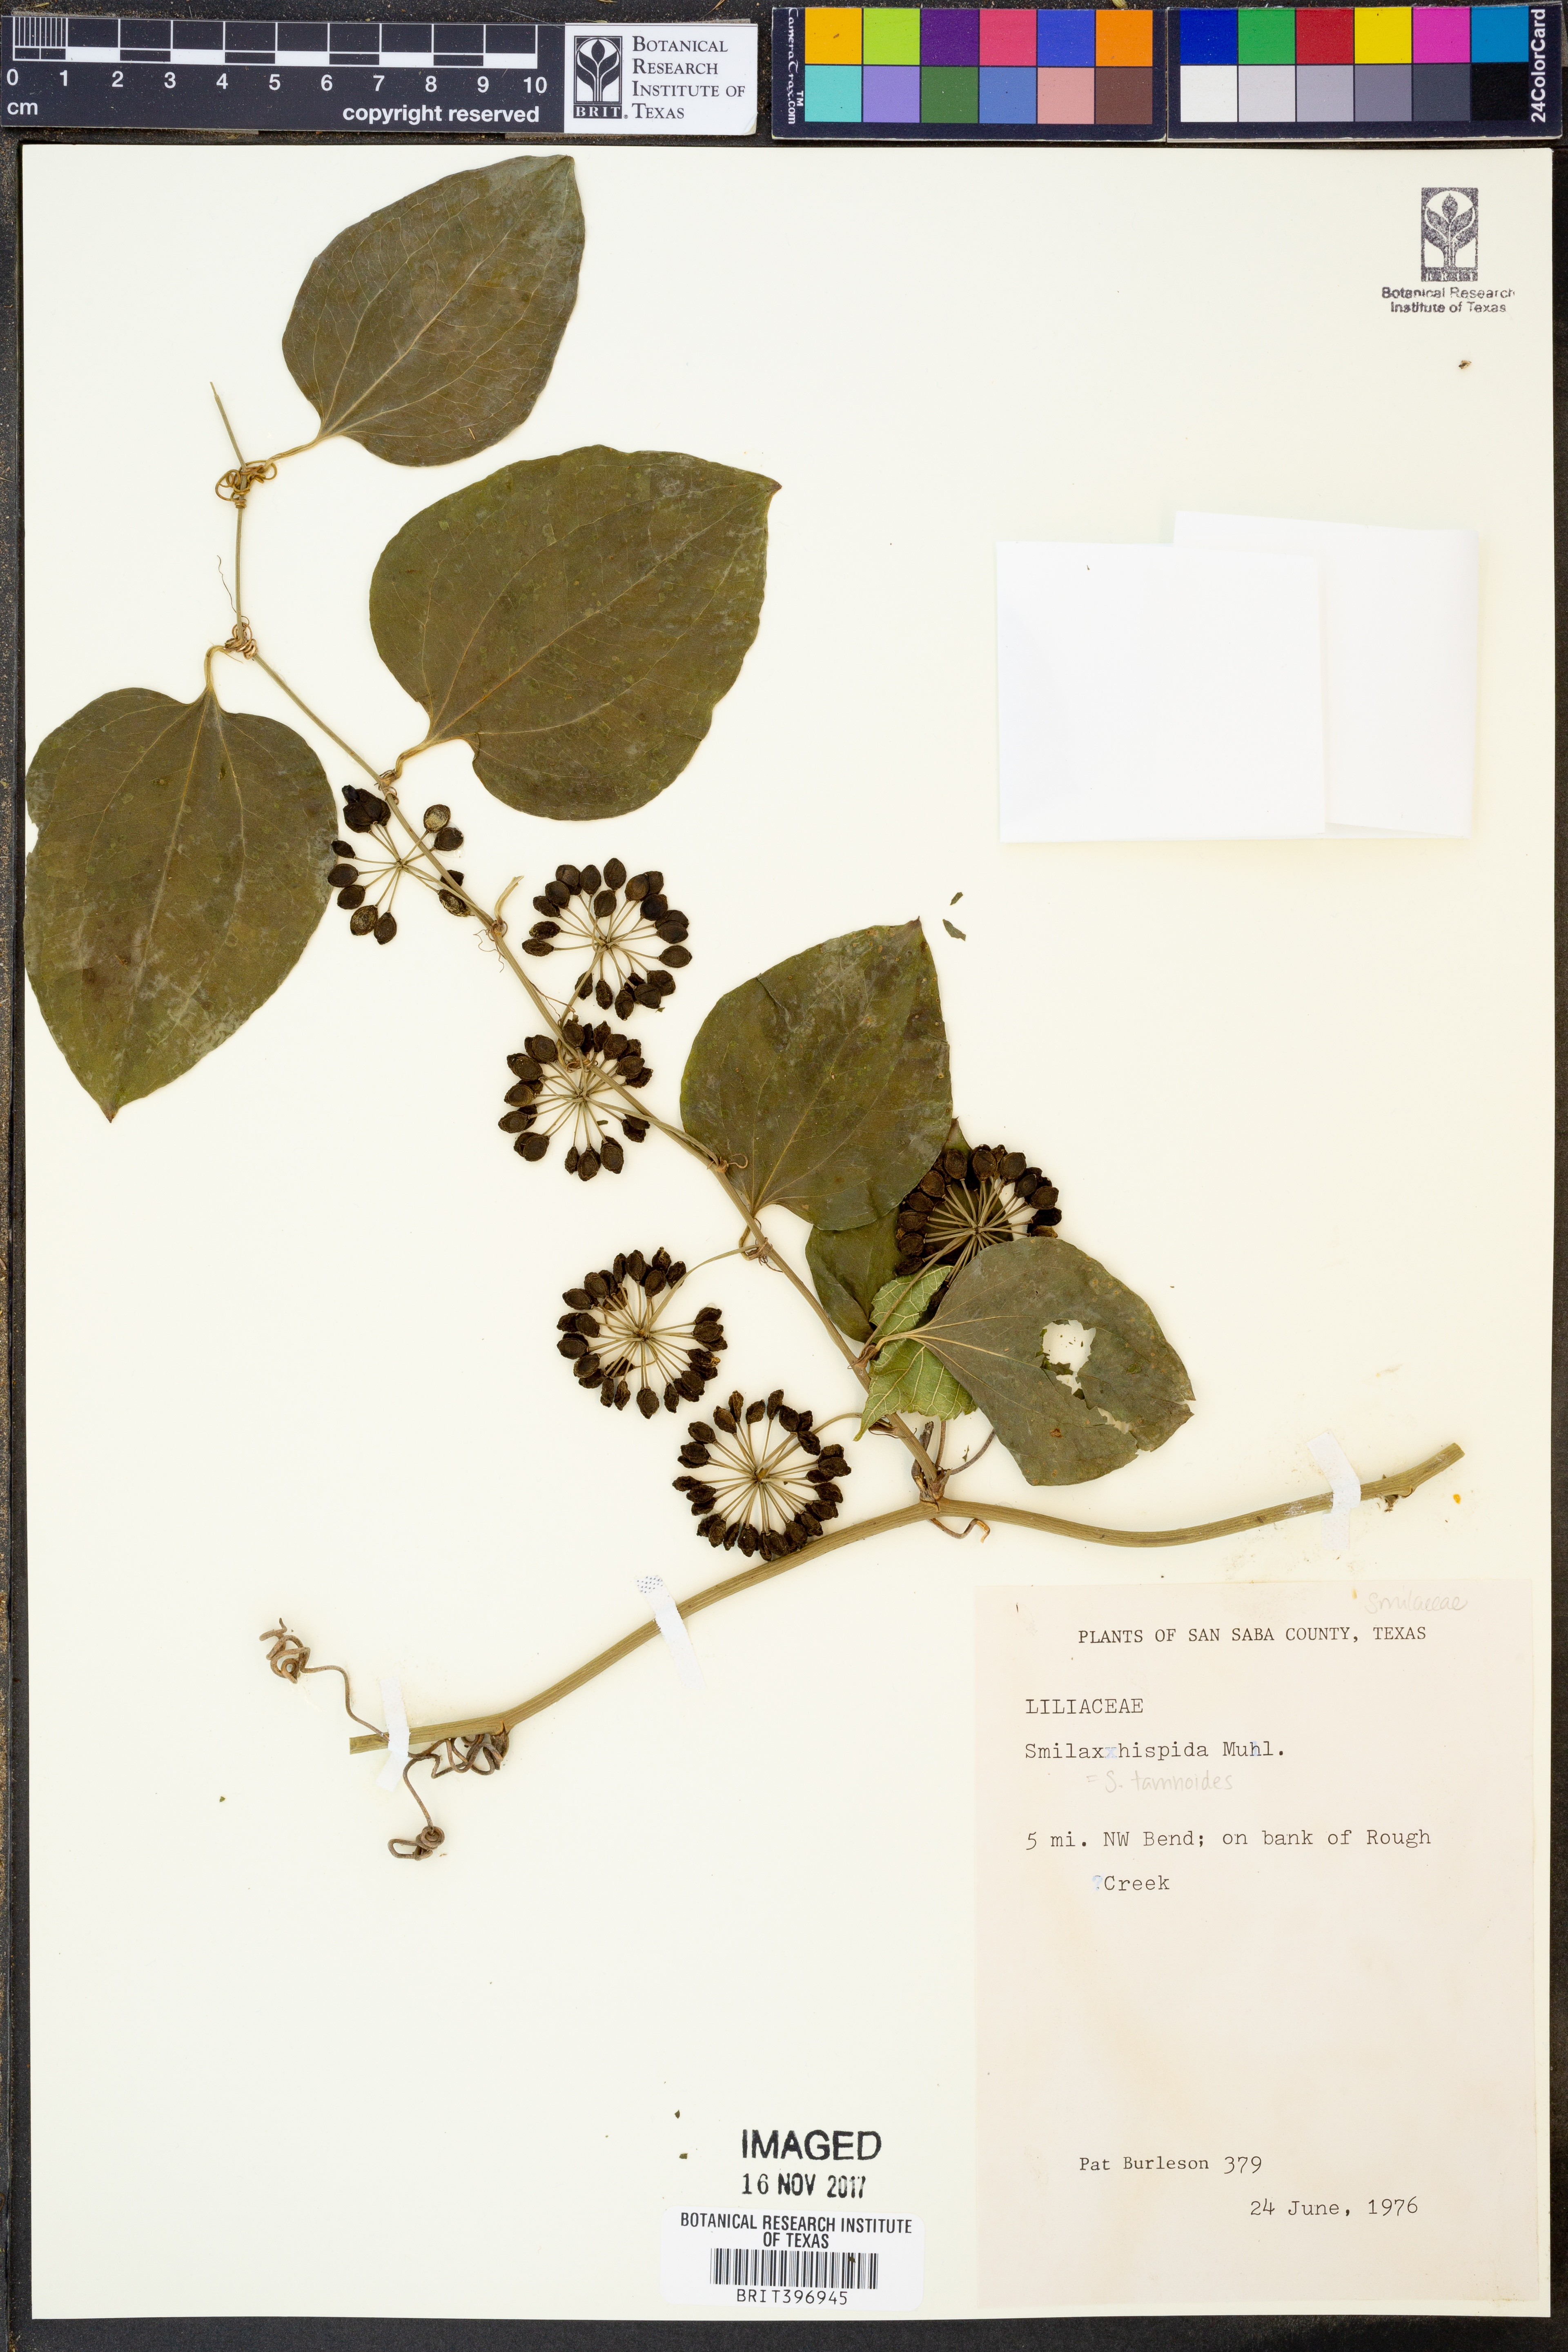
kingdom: Plantae
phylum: Tracheophyta
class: Liliopsida
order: Liliales
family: Smilacaceae
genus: Smilax
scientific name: Smilax tamnoides
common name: Hellfetter
